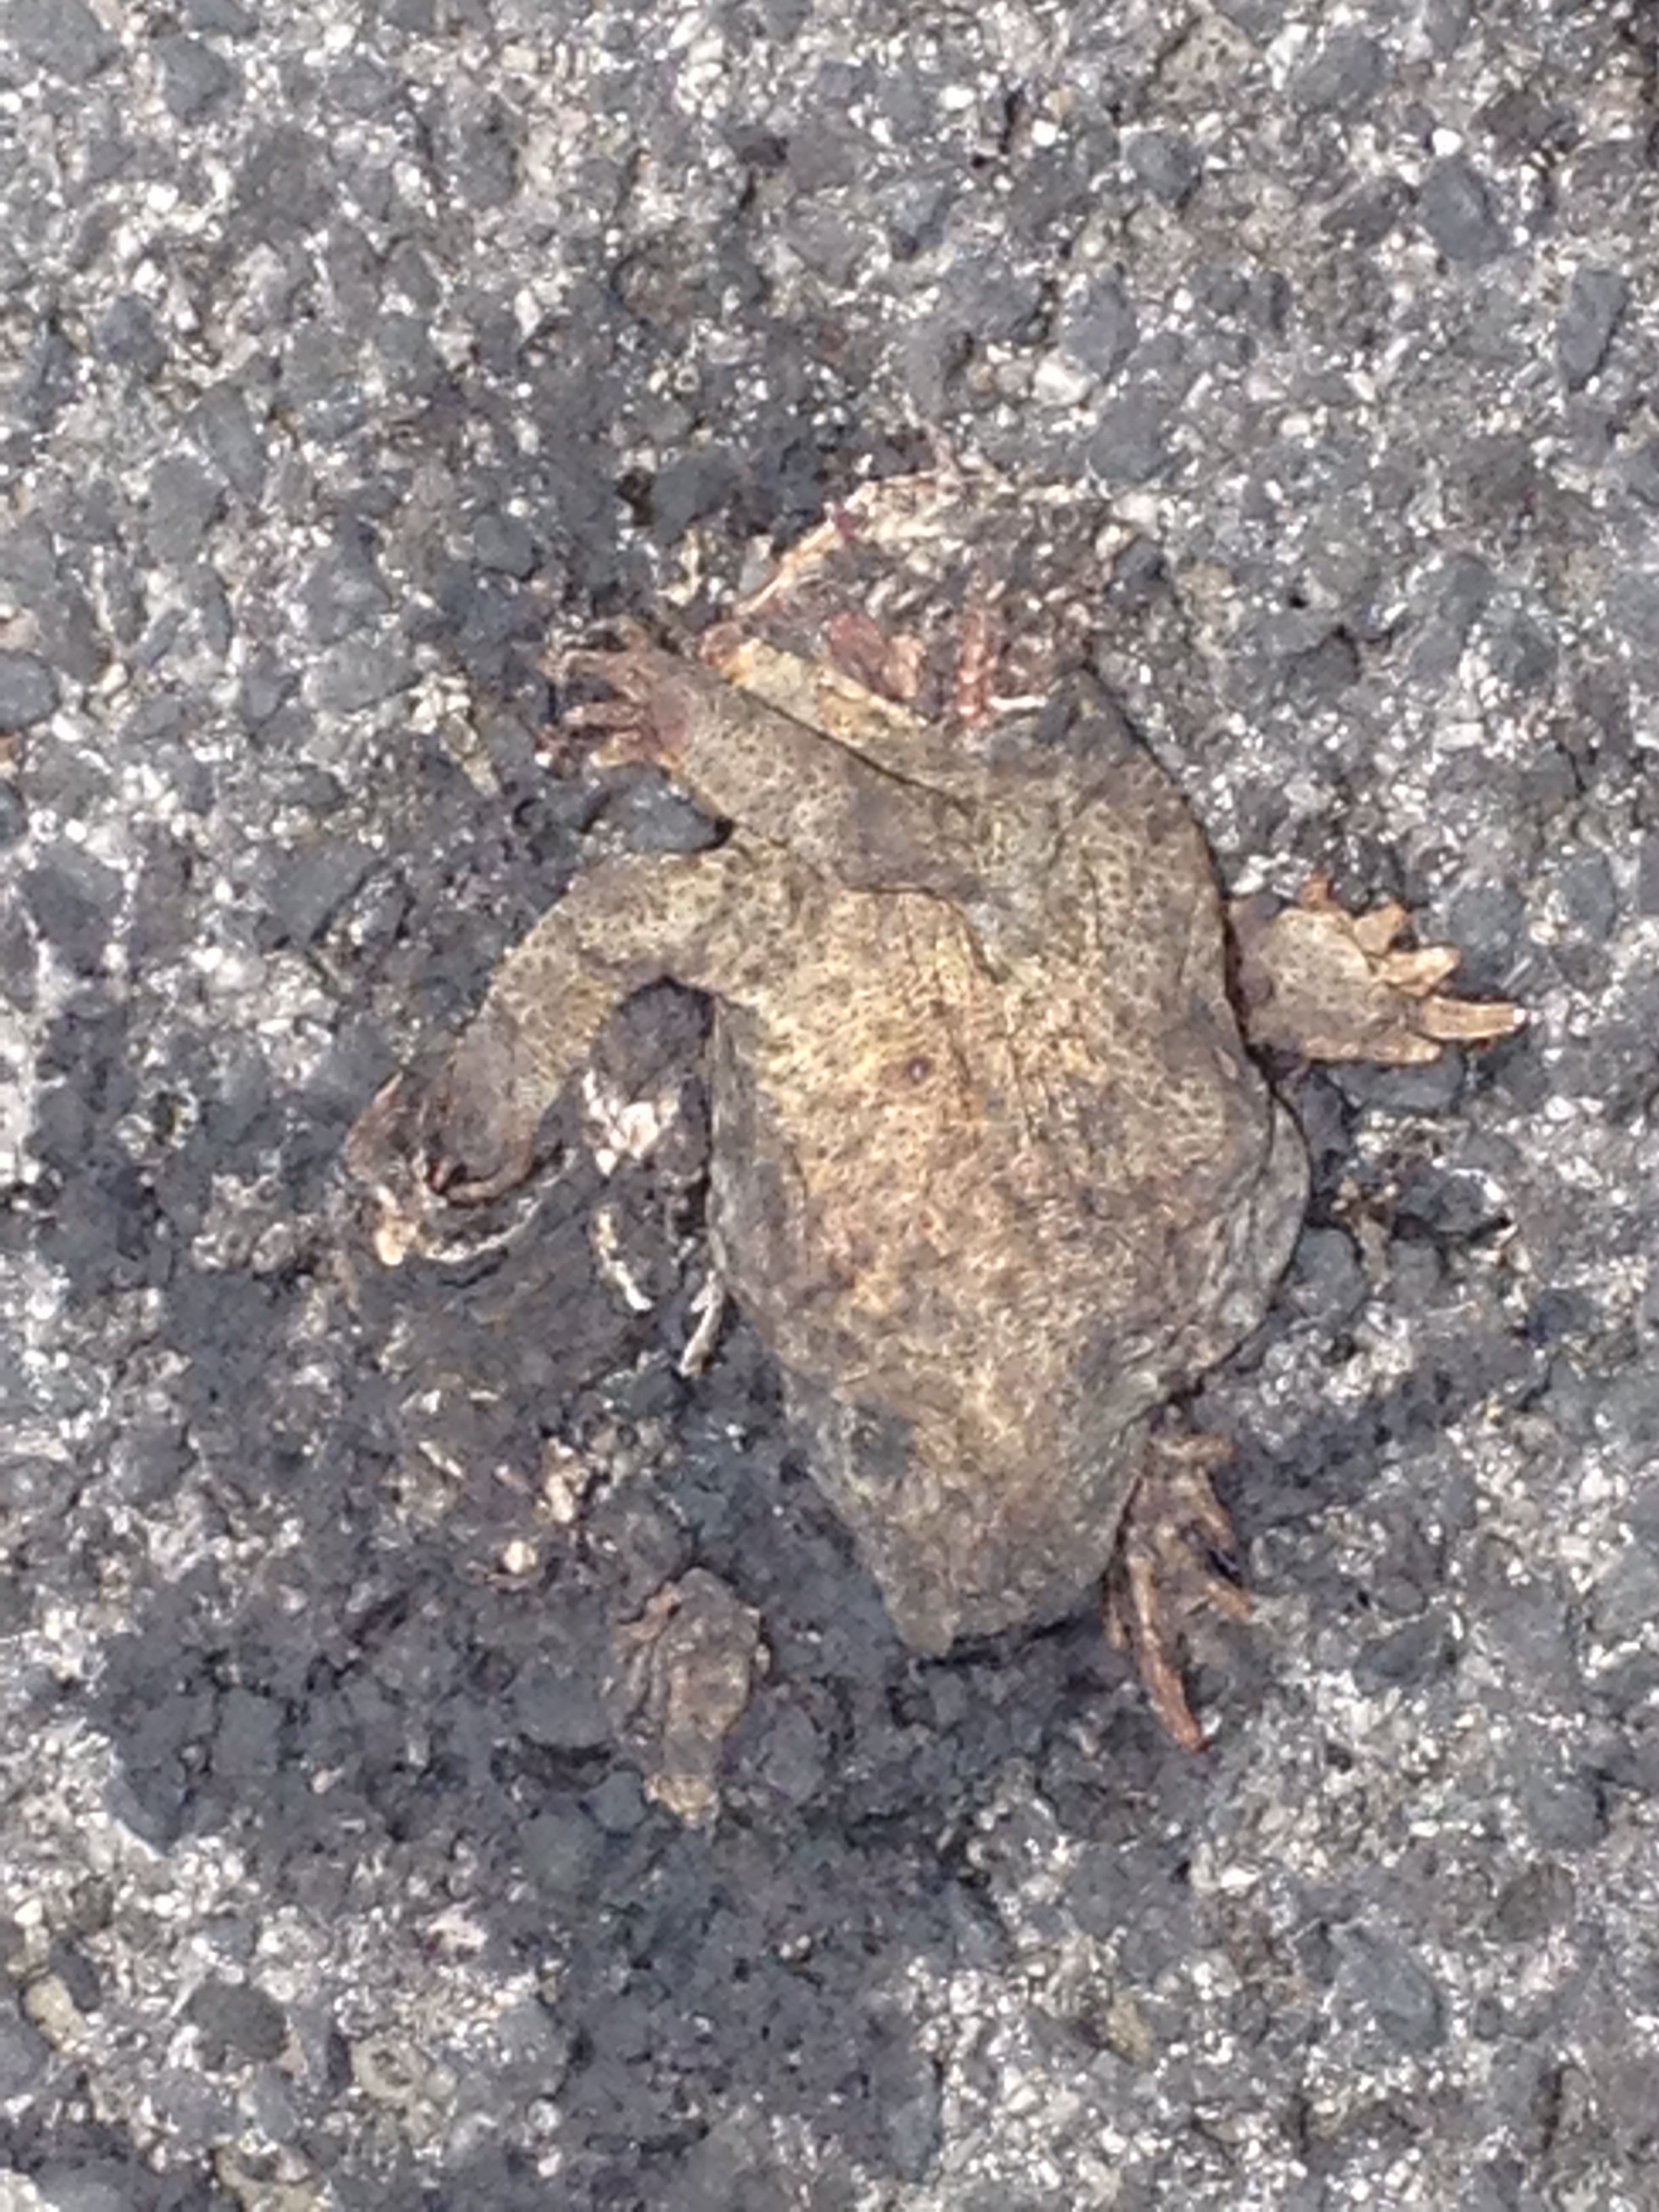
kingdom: Animalia
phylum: Chordata
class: Amphibia
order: Anura
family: Bufonidae
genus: Bufo
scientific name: Bufo bufo
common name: Common toad
